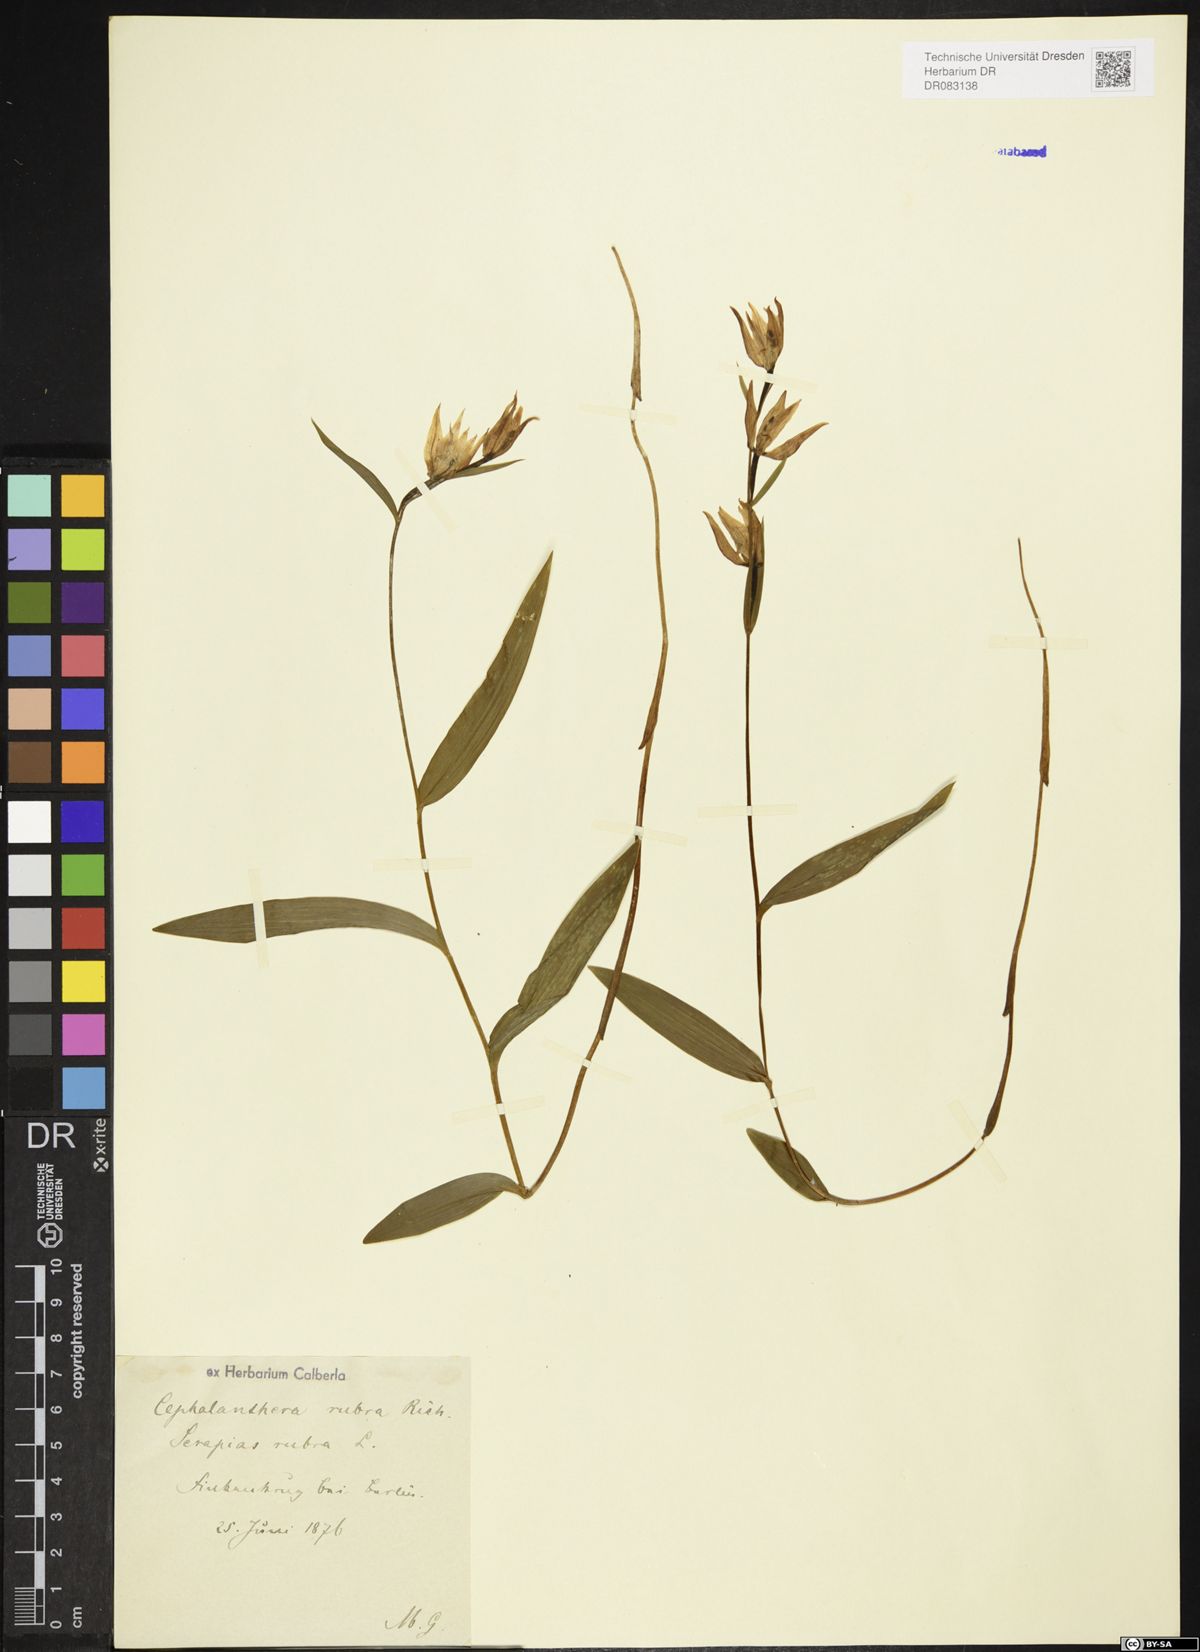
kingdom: Plantae
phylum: Tracheophyta
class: Liliopsida
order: Asparagales
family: Orchidaceae
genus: Cephalanthera
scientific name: Cephalanthera rubra
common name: Red helleborine
